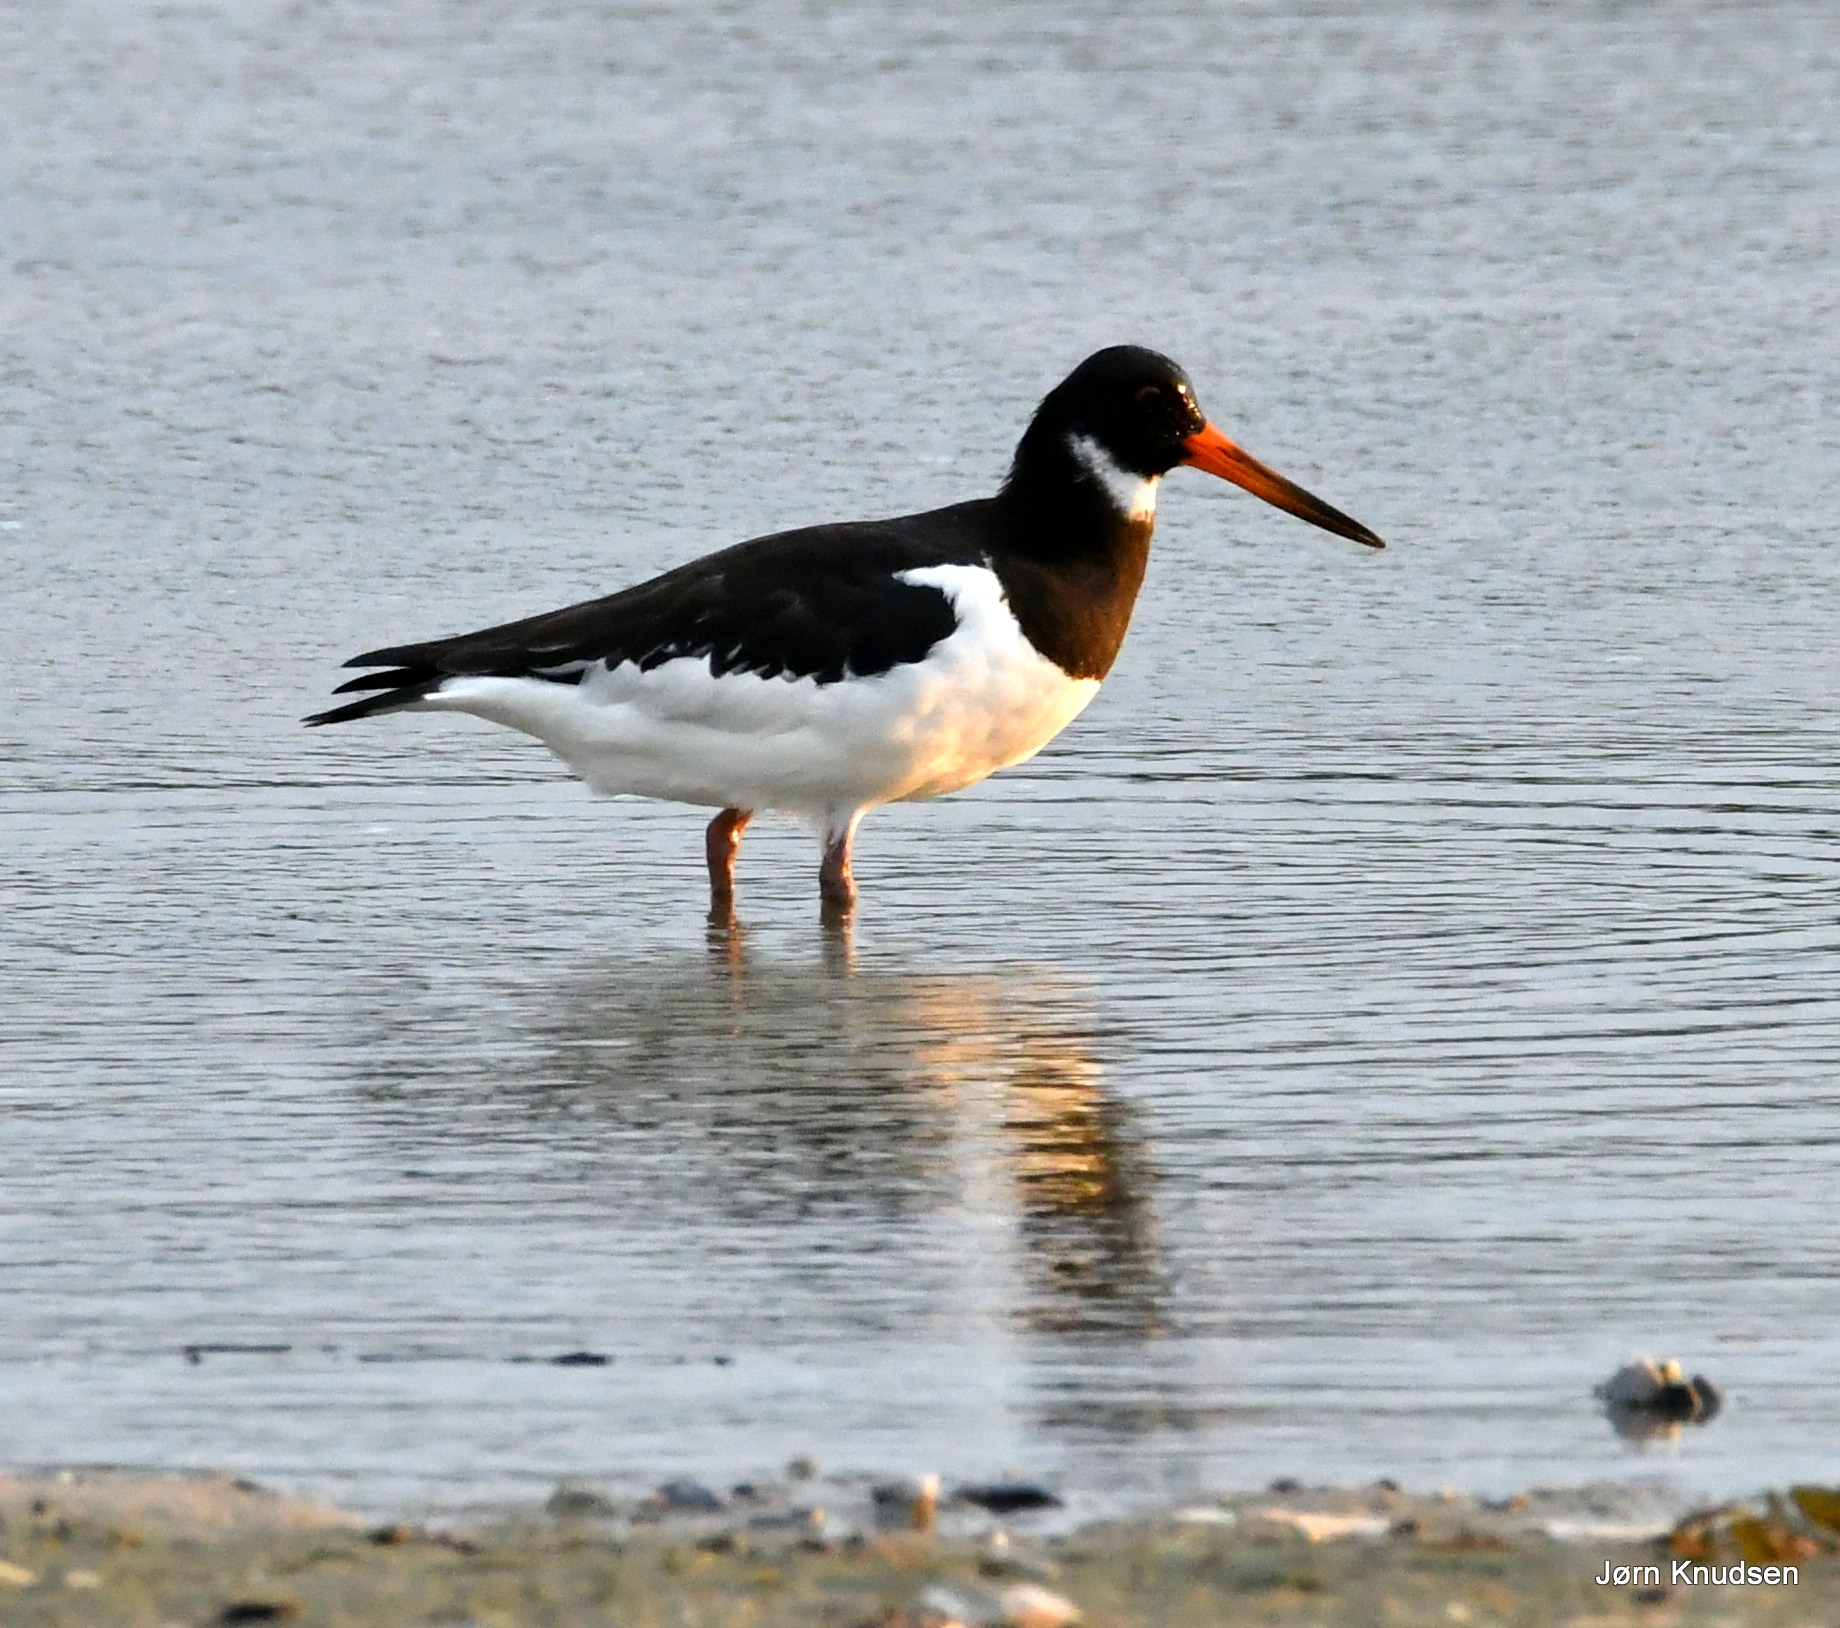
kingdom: Animalia
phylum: Chordata
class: Aves
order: Charadriiformes
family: Haematopodidae
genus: Haematopus
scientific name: Haematopus ostralegus
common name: Strandskade
